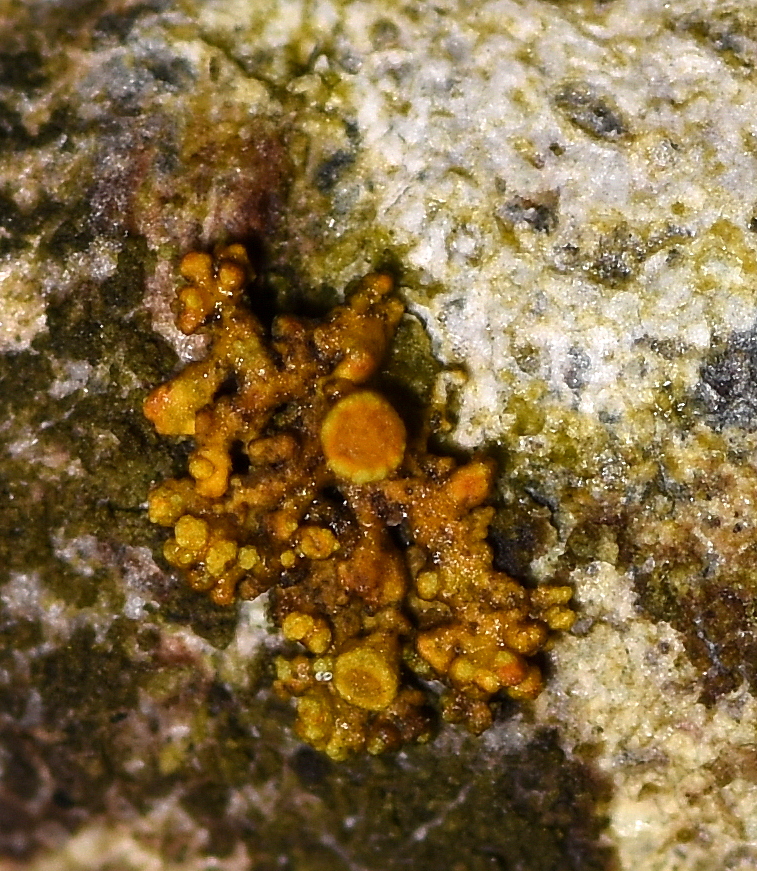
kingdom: Fungi
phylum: Ascomycota
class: Lecanoromycetes
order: Teloschistales
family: Teloschistaceae
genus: Polycauliona
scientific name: Polycauliona polycarpa
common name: mangefrugtet orangelav
